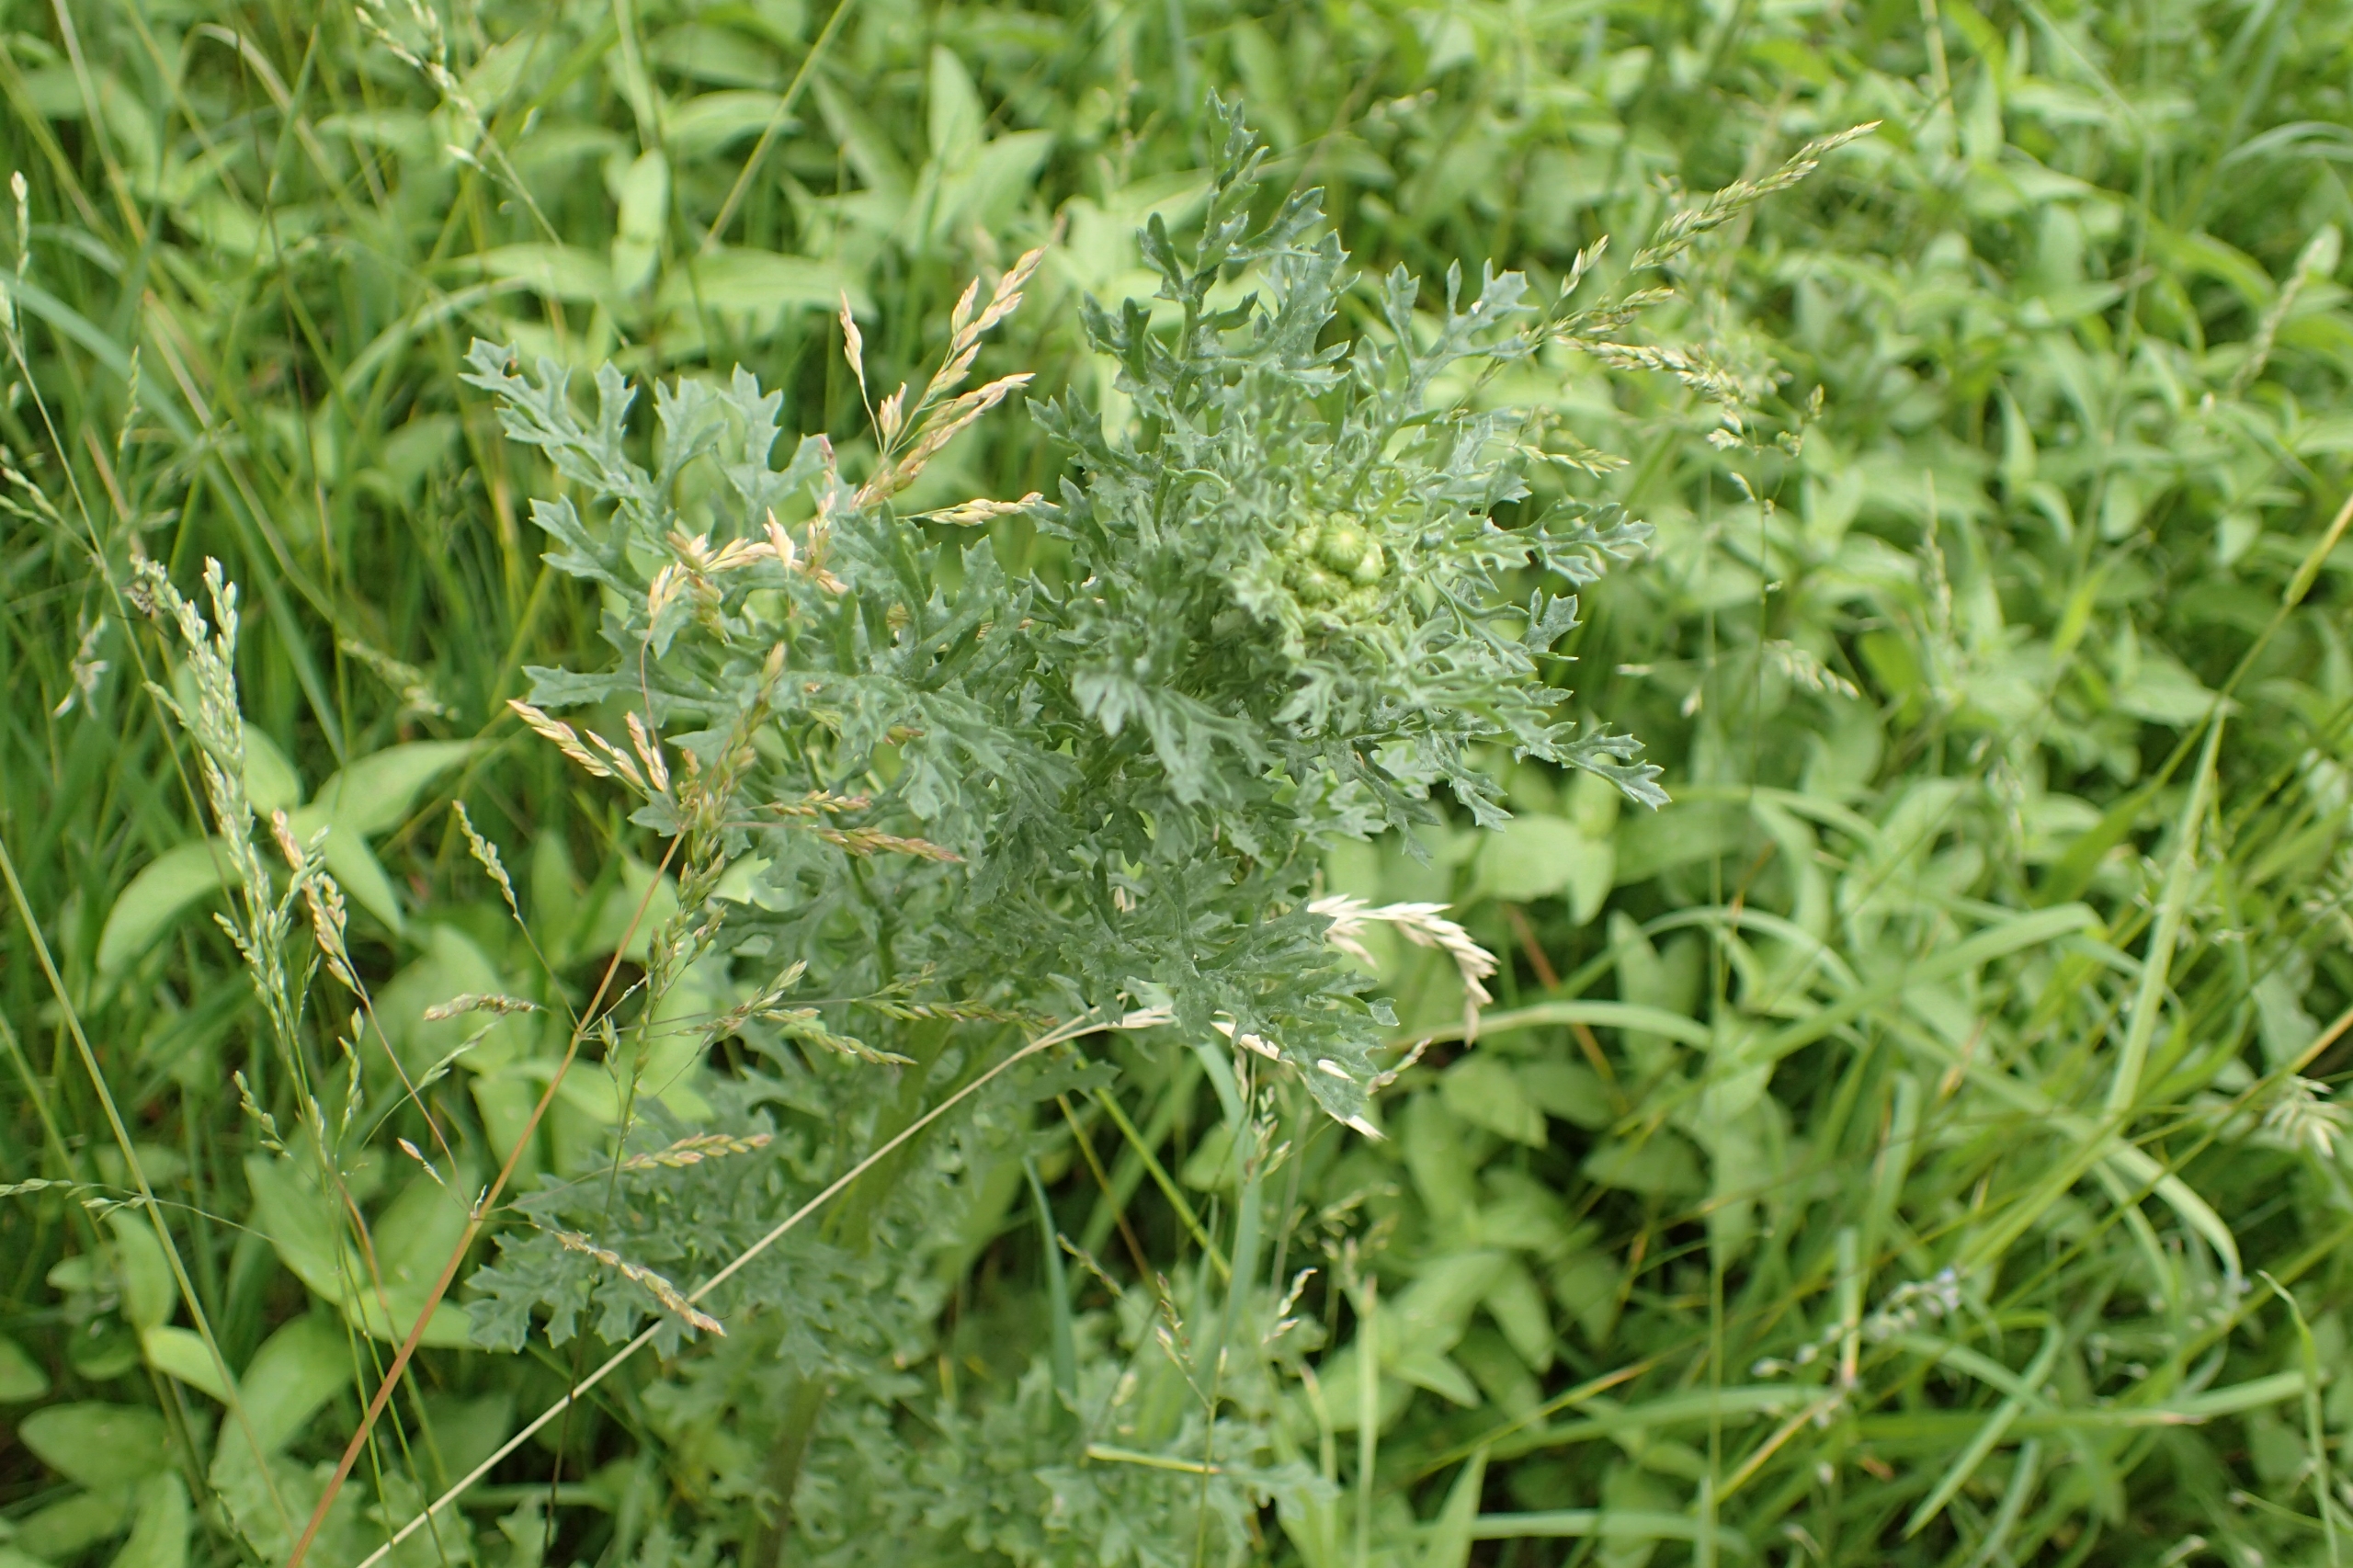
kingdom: Plantae
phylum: Tracheophyta
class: Magnoliopsida
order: Asterales
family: Asteraceae
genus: Jacobaea
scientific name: Jacobaea vulgaris
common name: Eng-brandbæger
